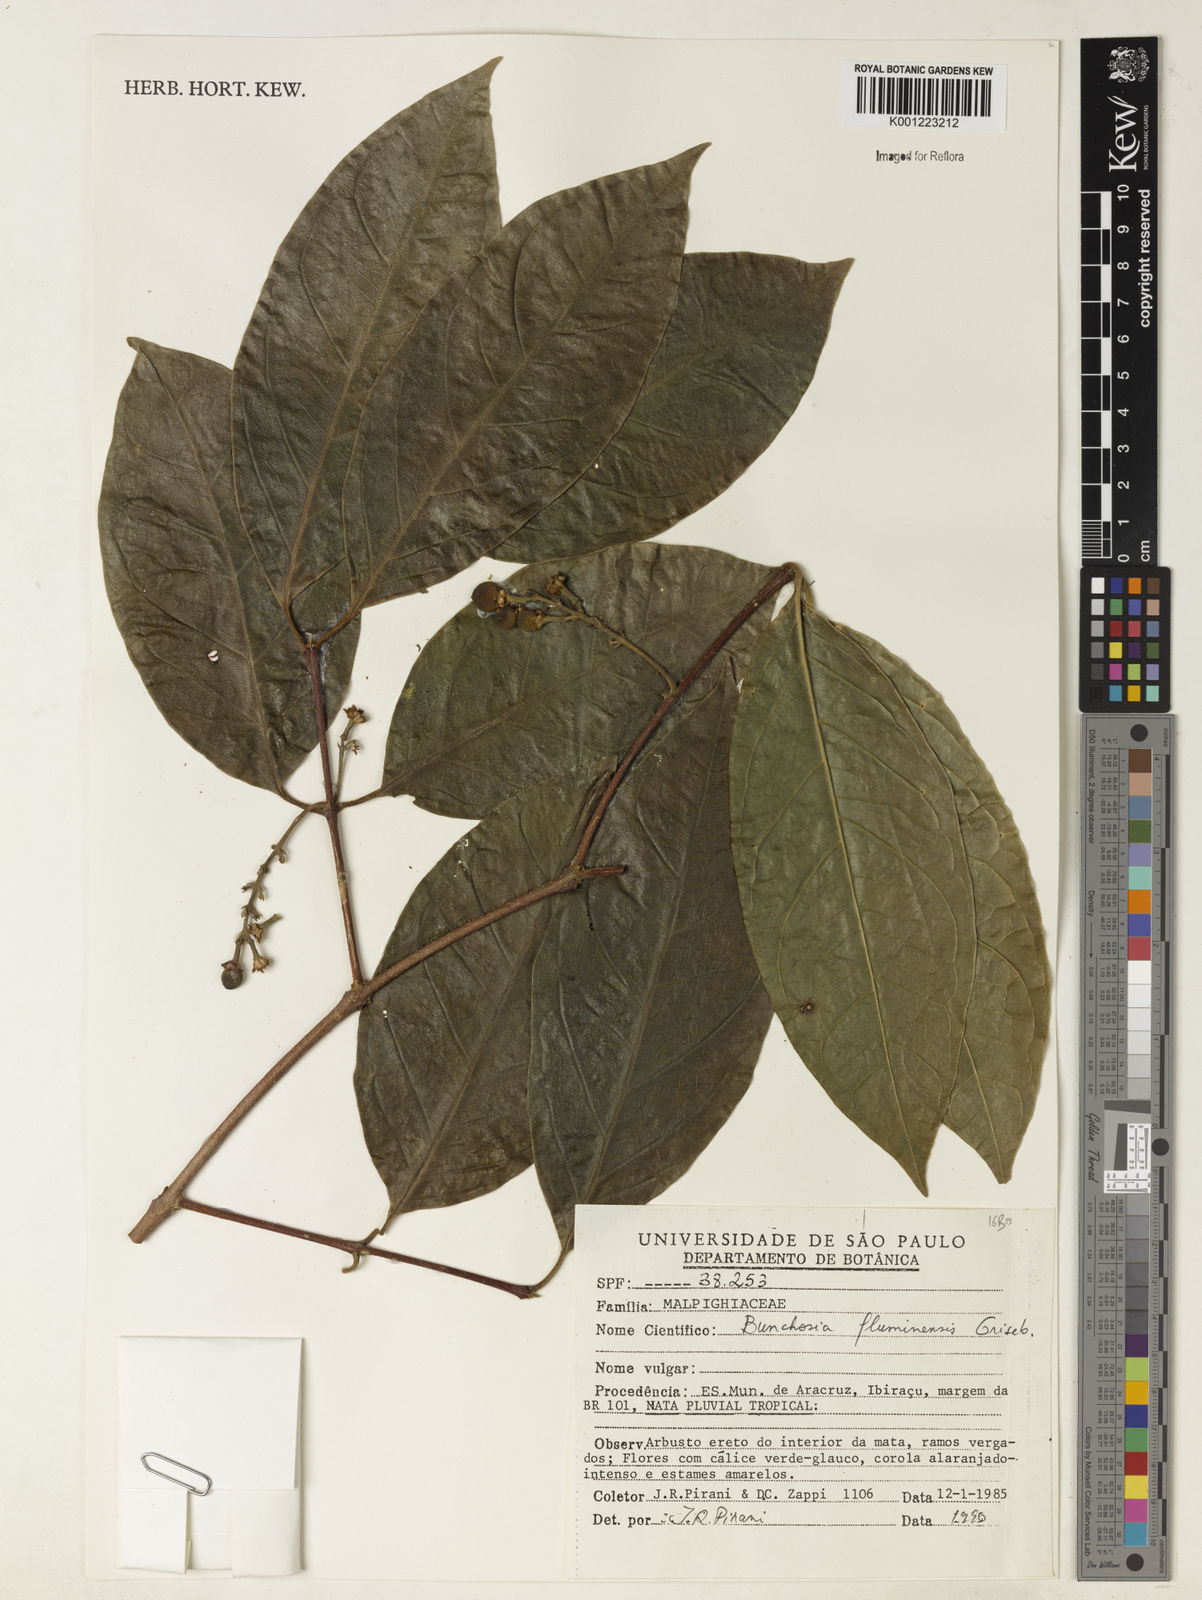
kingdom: Plantae
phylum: Tracheophyta
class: Magnoliopsida
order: Malpighiales
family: Malpighiaceae
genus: Bunchosia
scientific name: Bunchosia fluminensis
